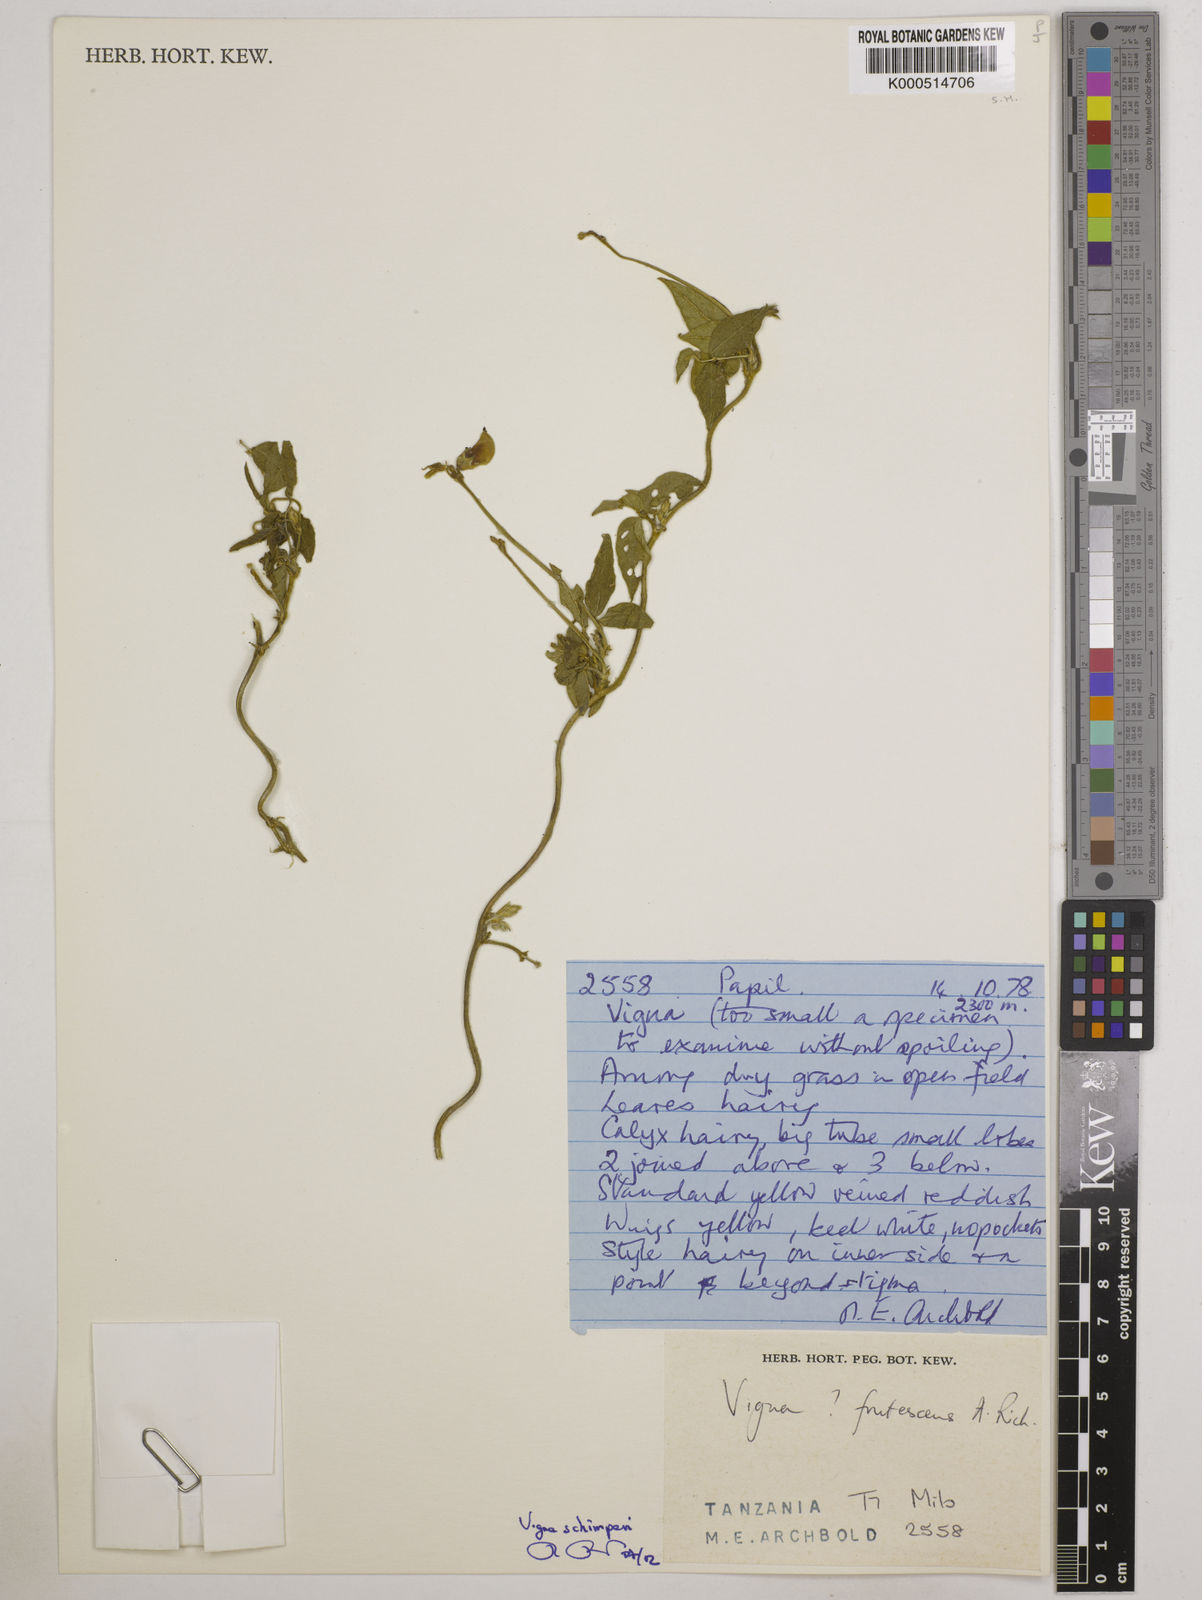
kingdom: Plantae
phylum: Tracheophyta
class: Magnoliopsida
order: Fabales
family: Fabaceae
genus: Vigna
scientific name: Vigna frutescens
